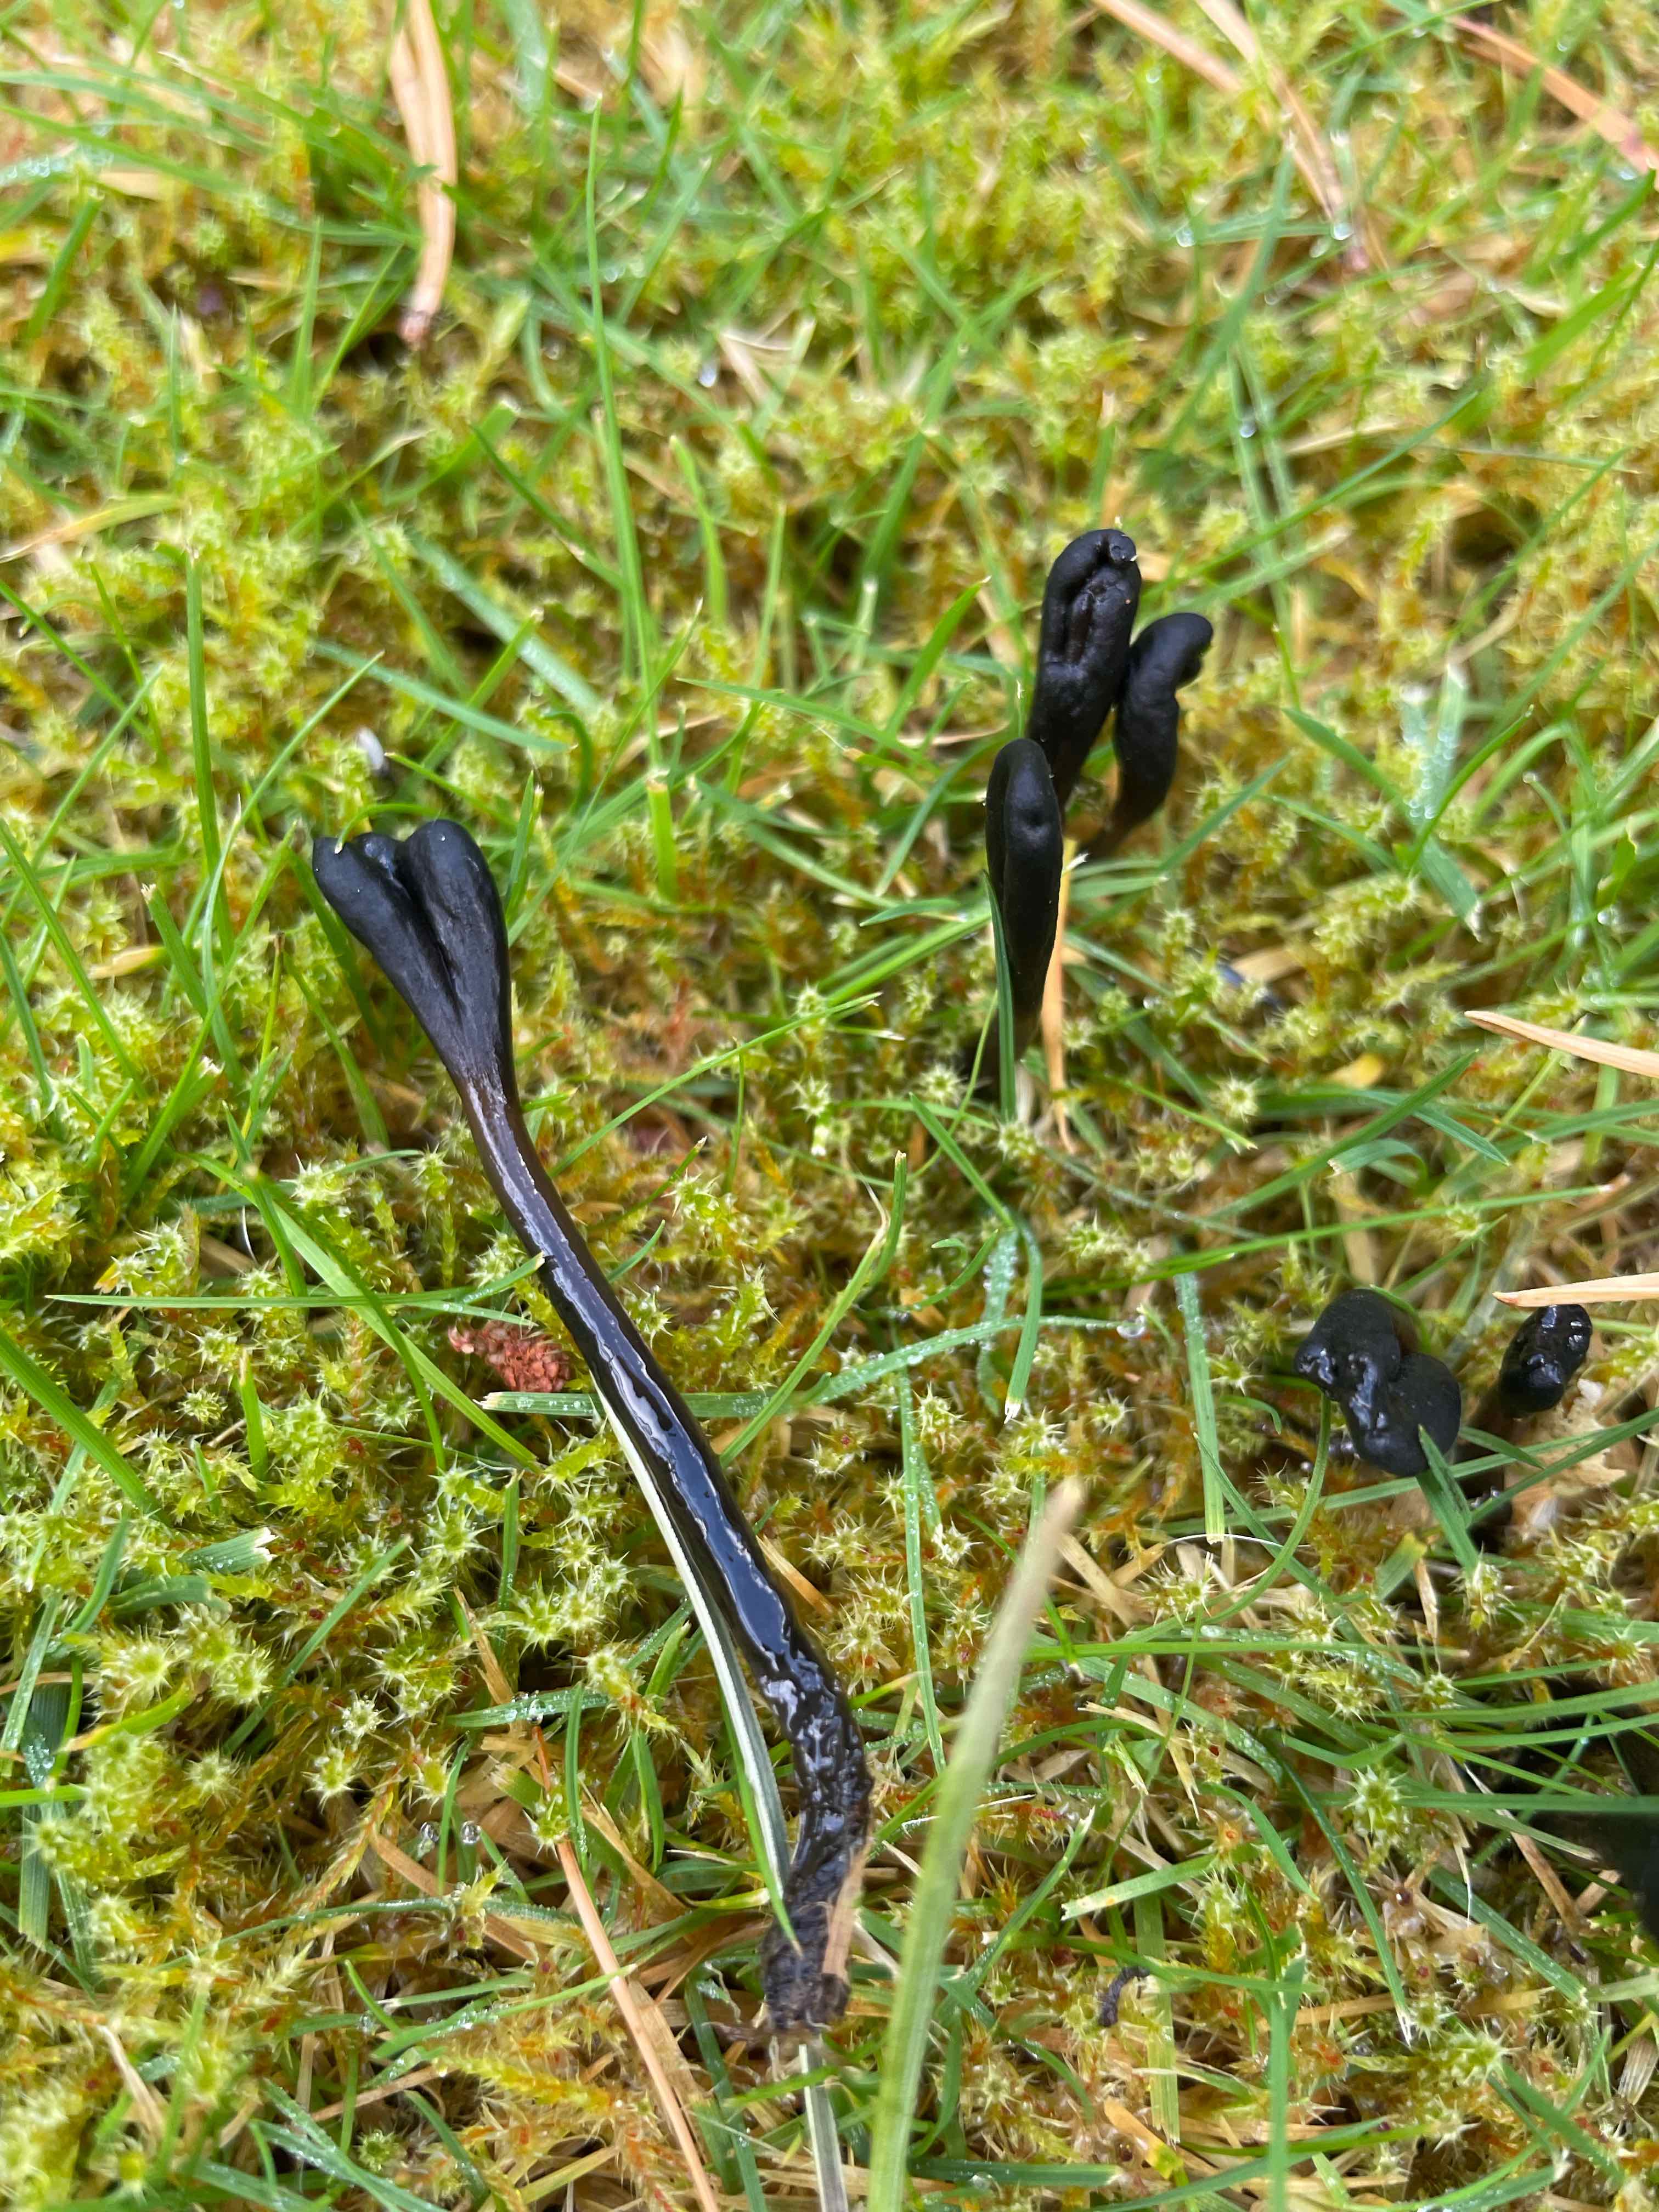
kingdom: Fungi
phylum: Ascomycota
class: Geoglossomycetes
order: Geoglossales
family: Geoglossaceae
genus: Glutinoglossum
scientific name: Glutinoglossum
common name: jordtunge
